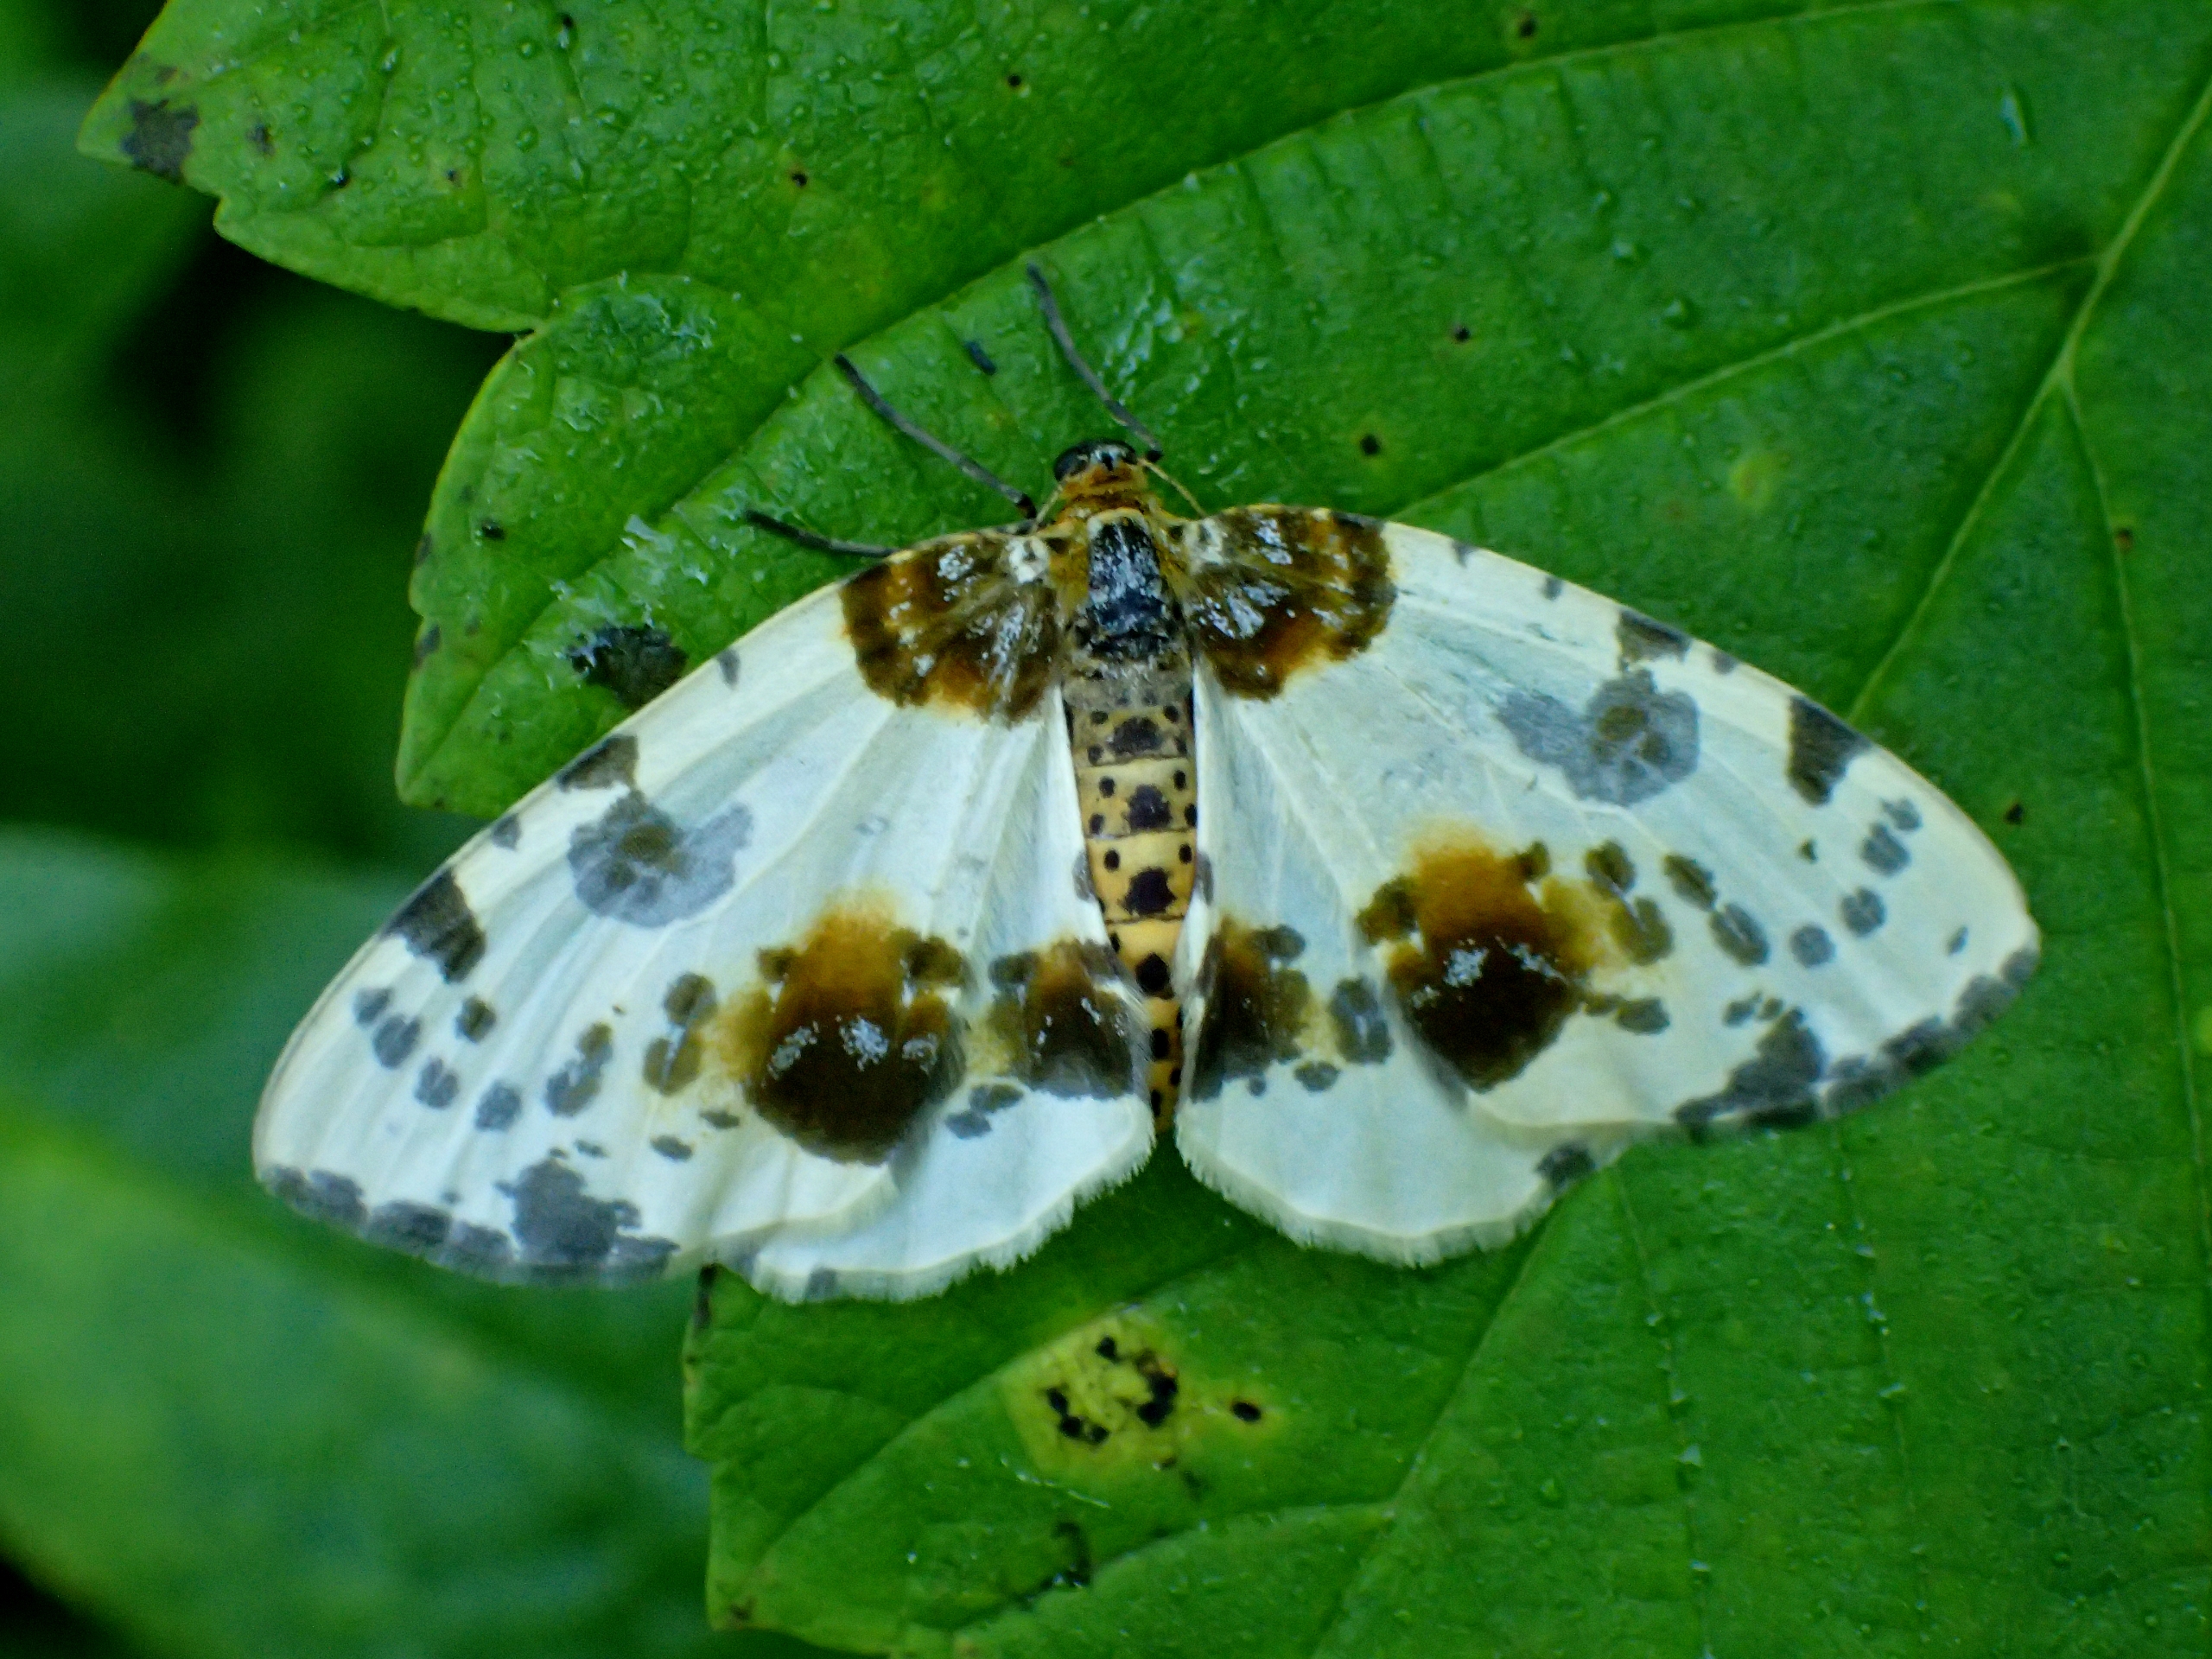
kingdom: Animalia
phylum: Arthropoda
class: Insecta
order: Lepidoptera
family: Geometridae
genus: Abraxas
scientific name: Abraxas sylvata
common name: Elmemåler
